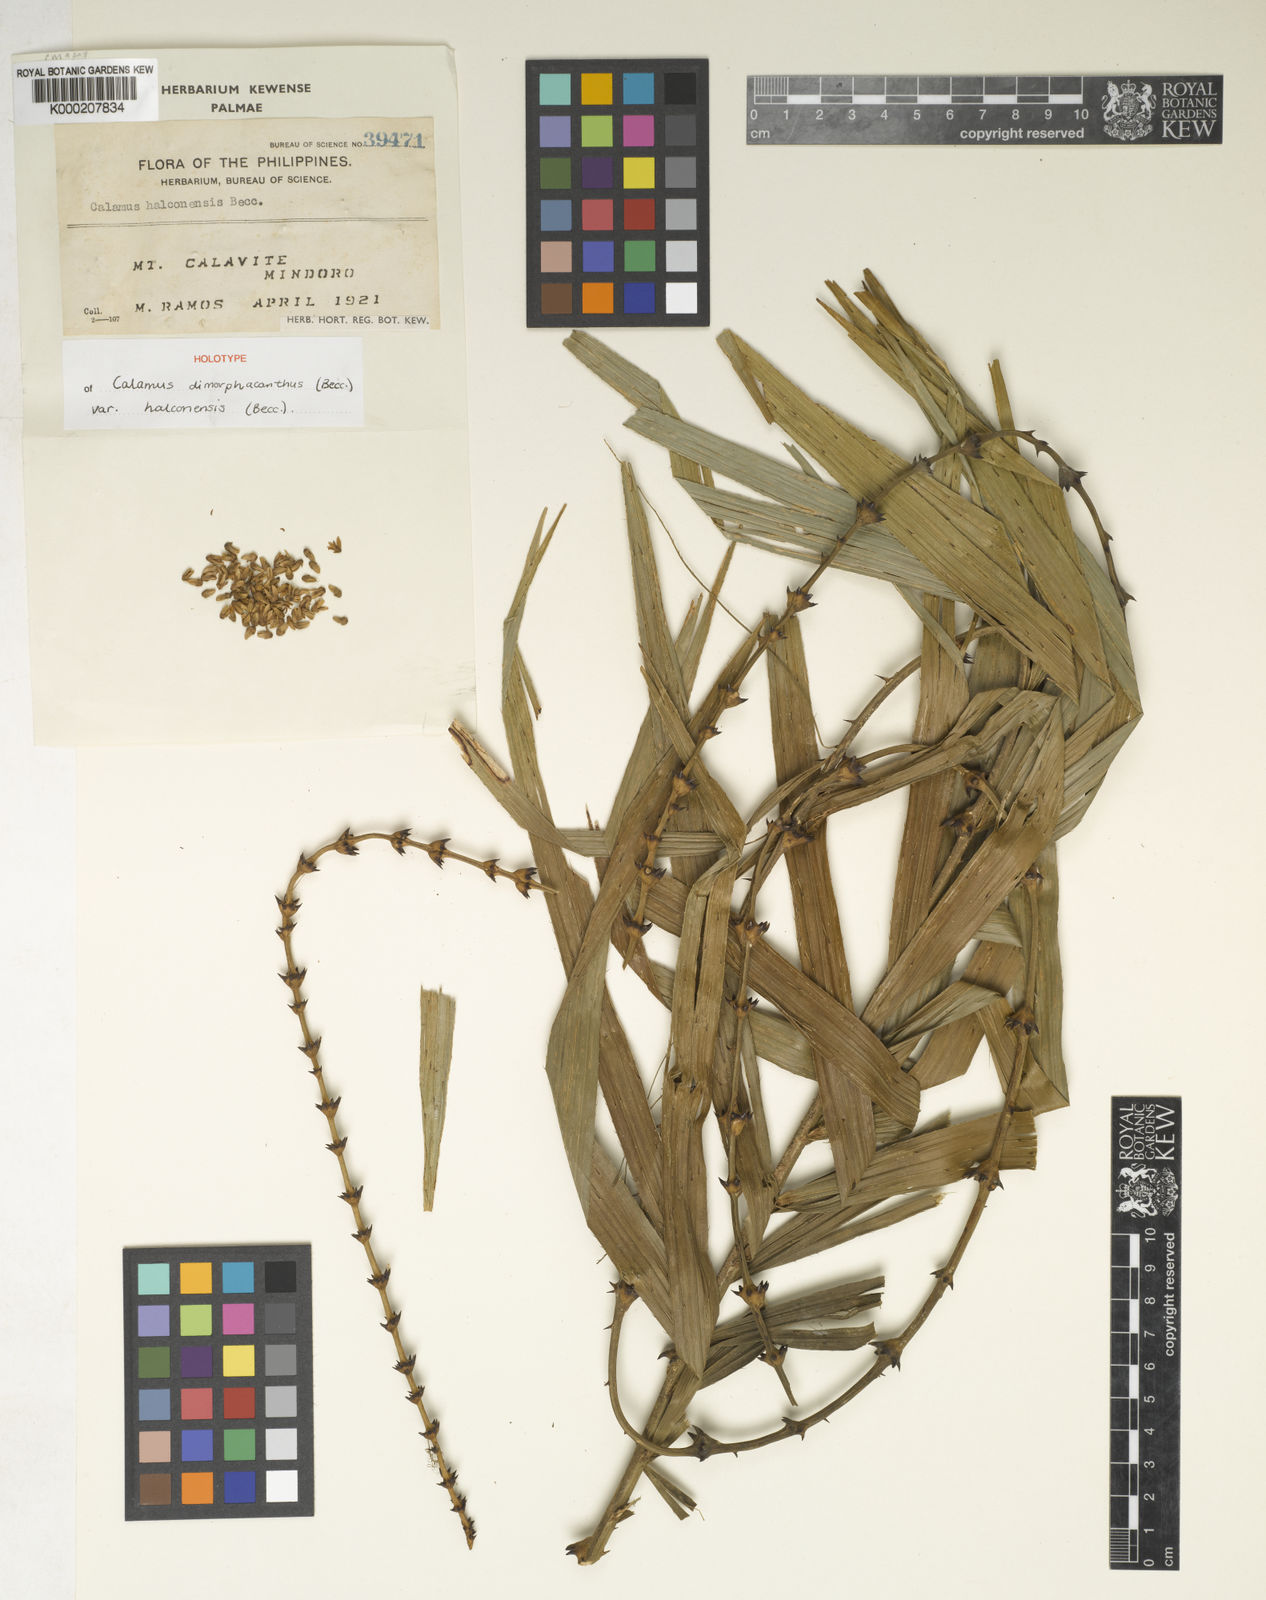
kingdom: Plantae
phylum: Tracheophyta
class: Liliopsida
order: Arecales
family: Arecaceae
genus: Calamus
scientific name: Calamus siphonospathus
